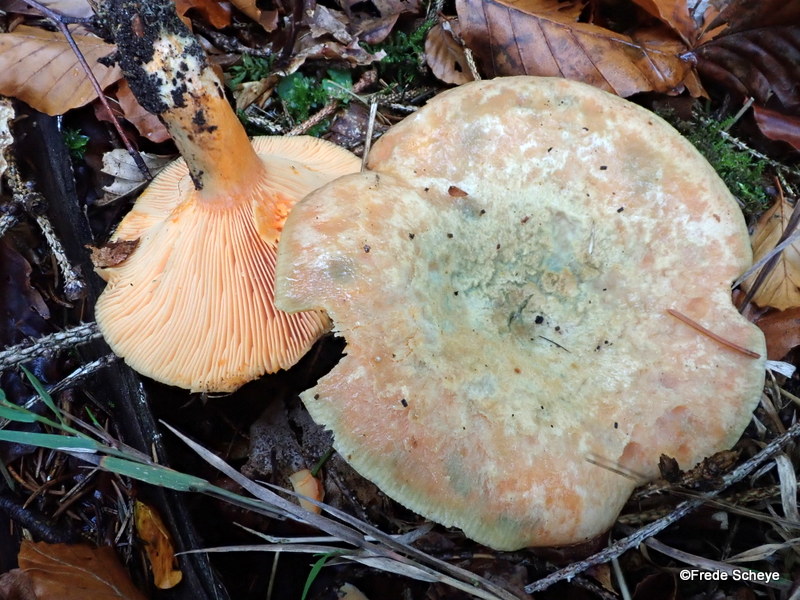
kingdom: Fungi
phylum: Basidiomycota
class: Agaricomycetes
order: Russulales
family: Russulaceae
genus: Lactarius
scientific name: Lactarius deterrimus
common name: gran-mælkehat
